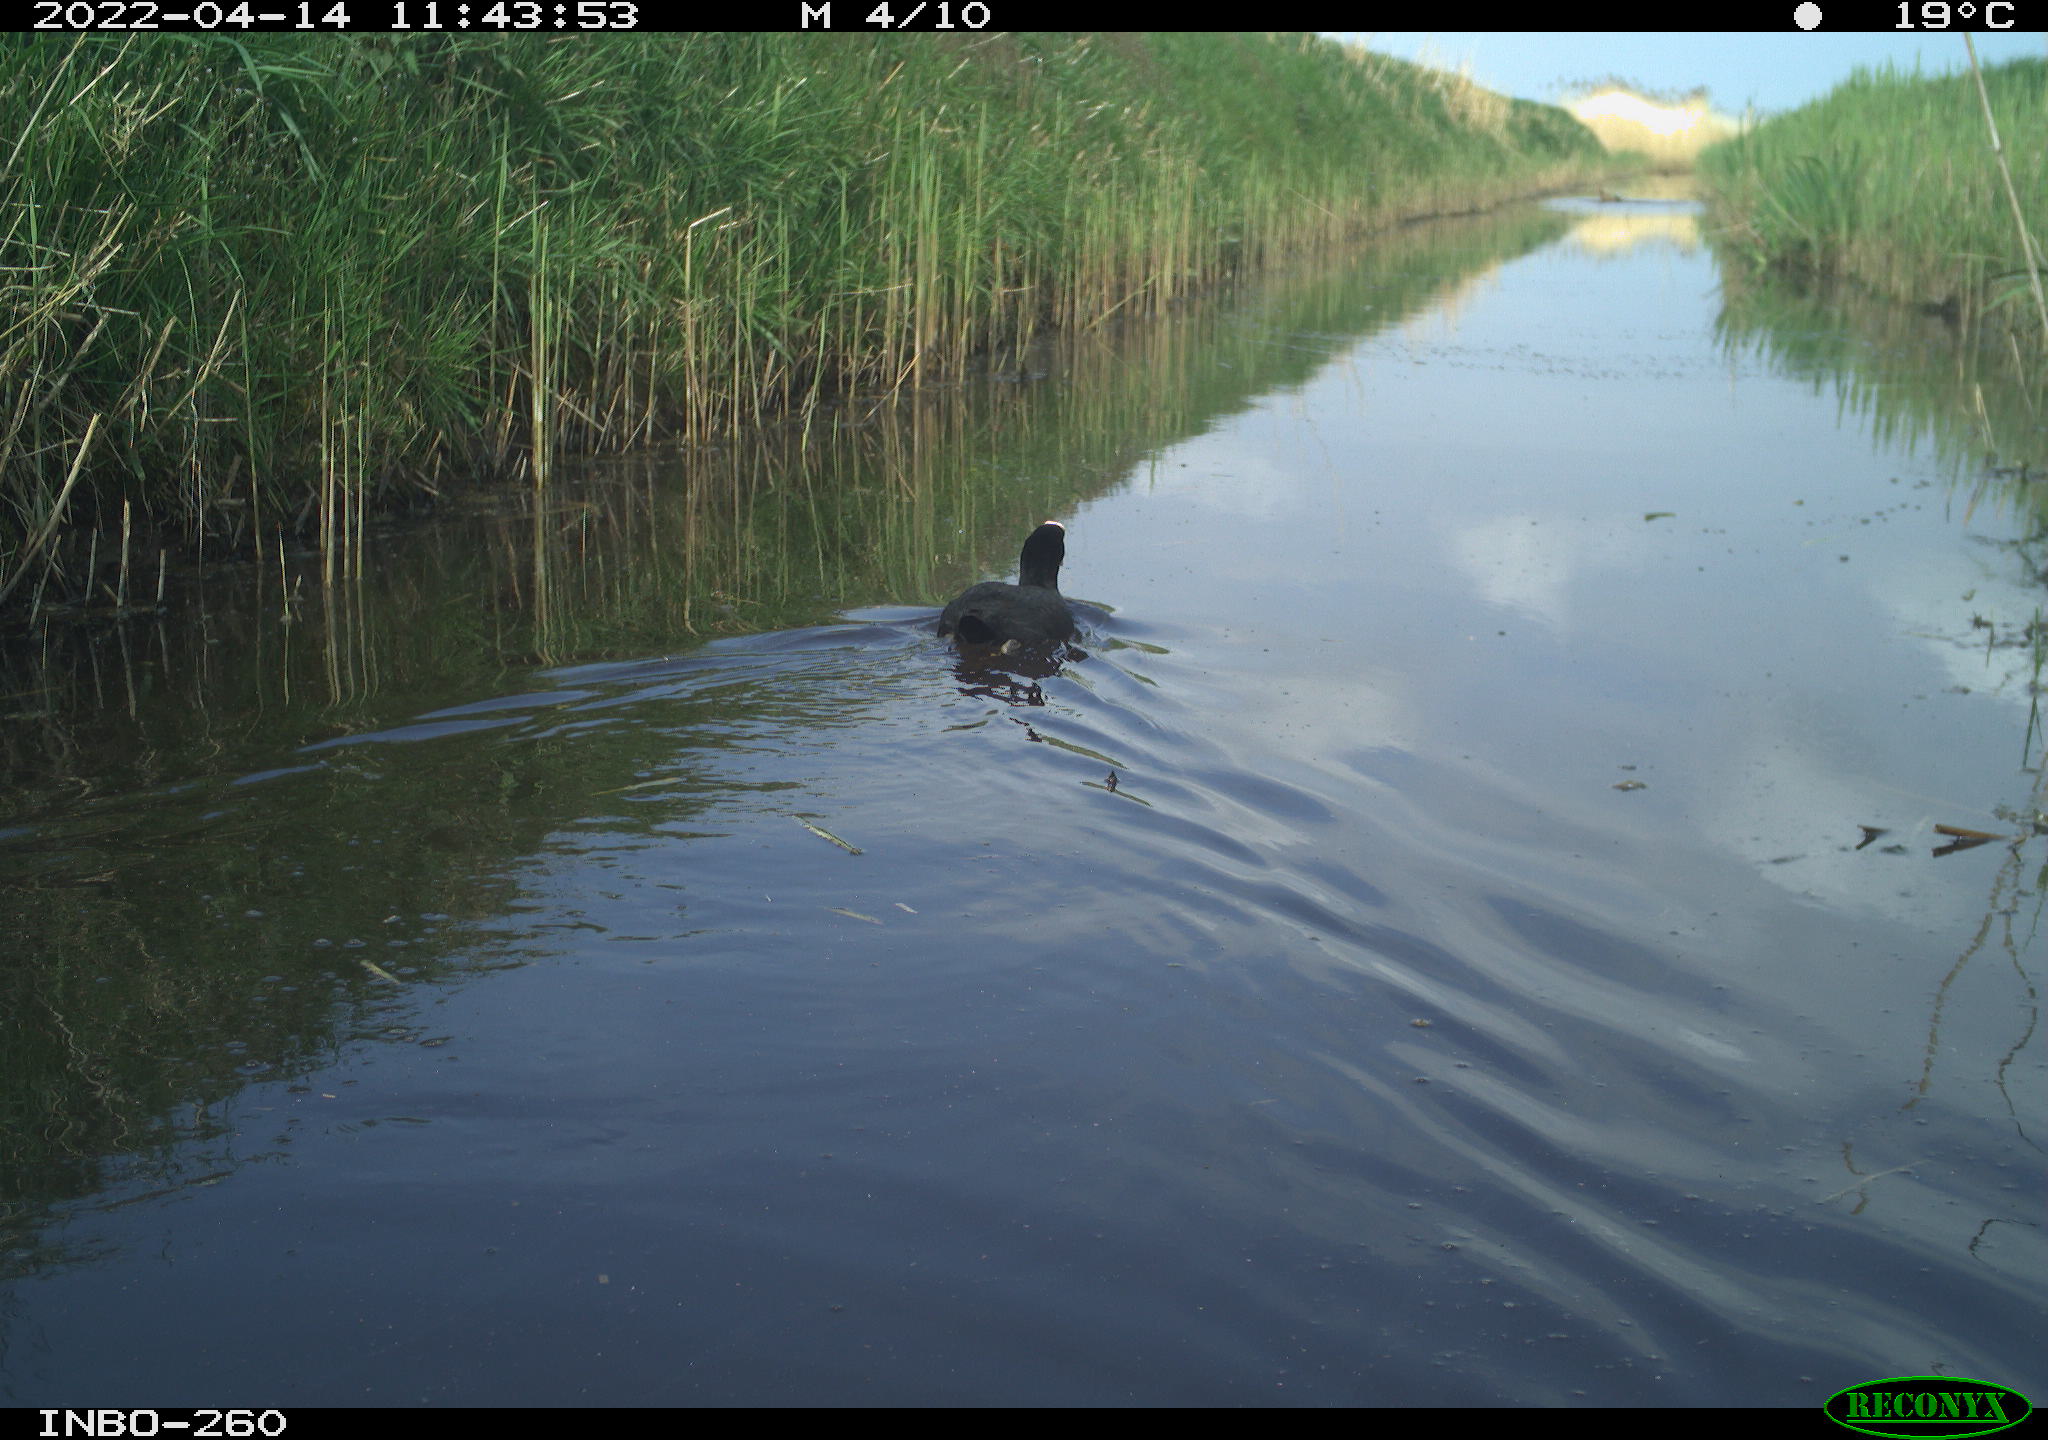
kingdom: Animalia
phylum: Chordata
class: Aves
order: Gruiformes
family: Rallidae
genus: Fulica
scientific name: Fulica atra
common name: Eurasian coot
